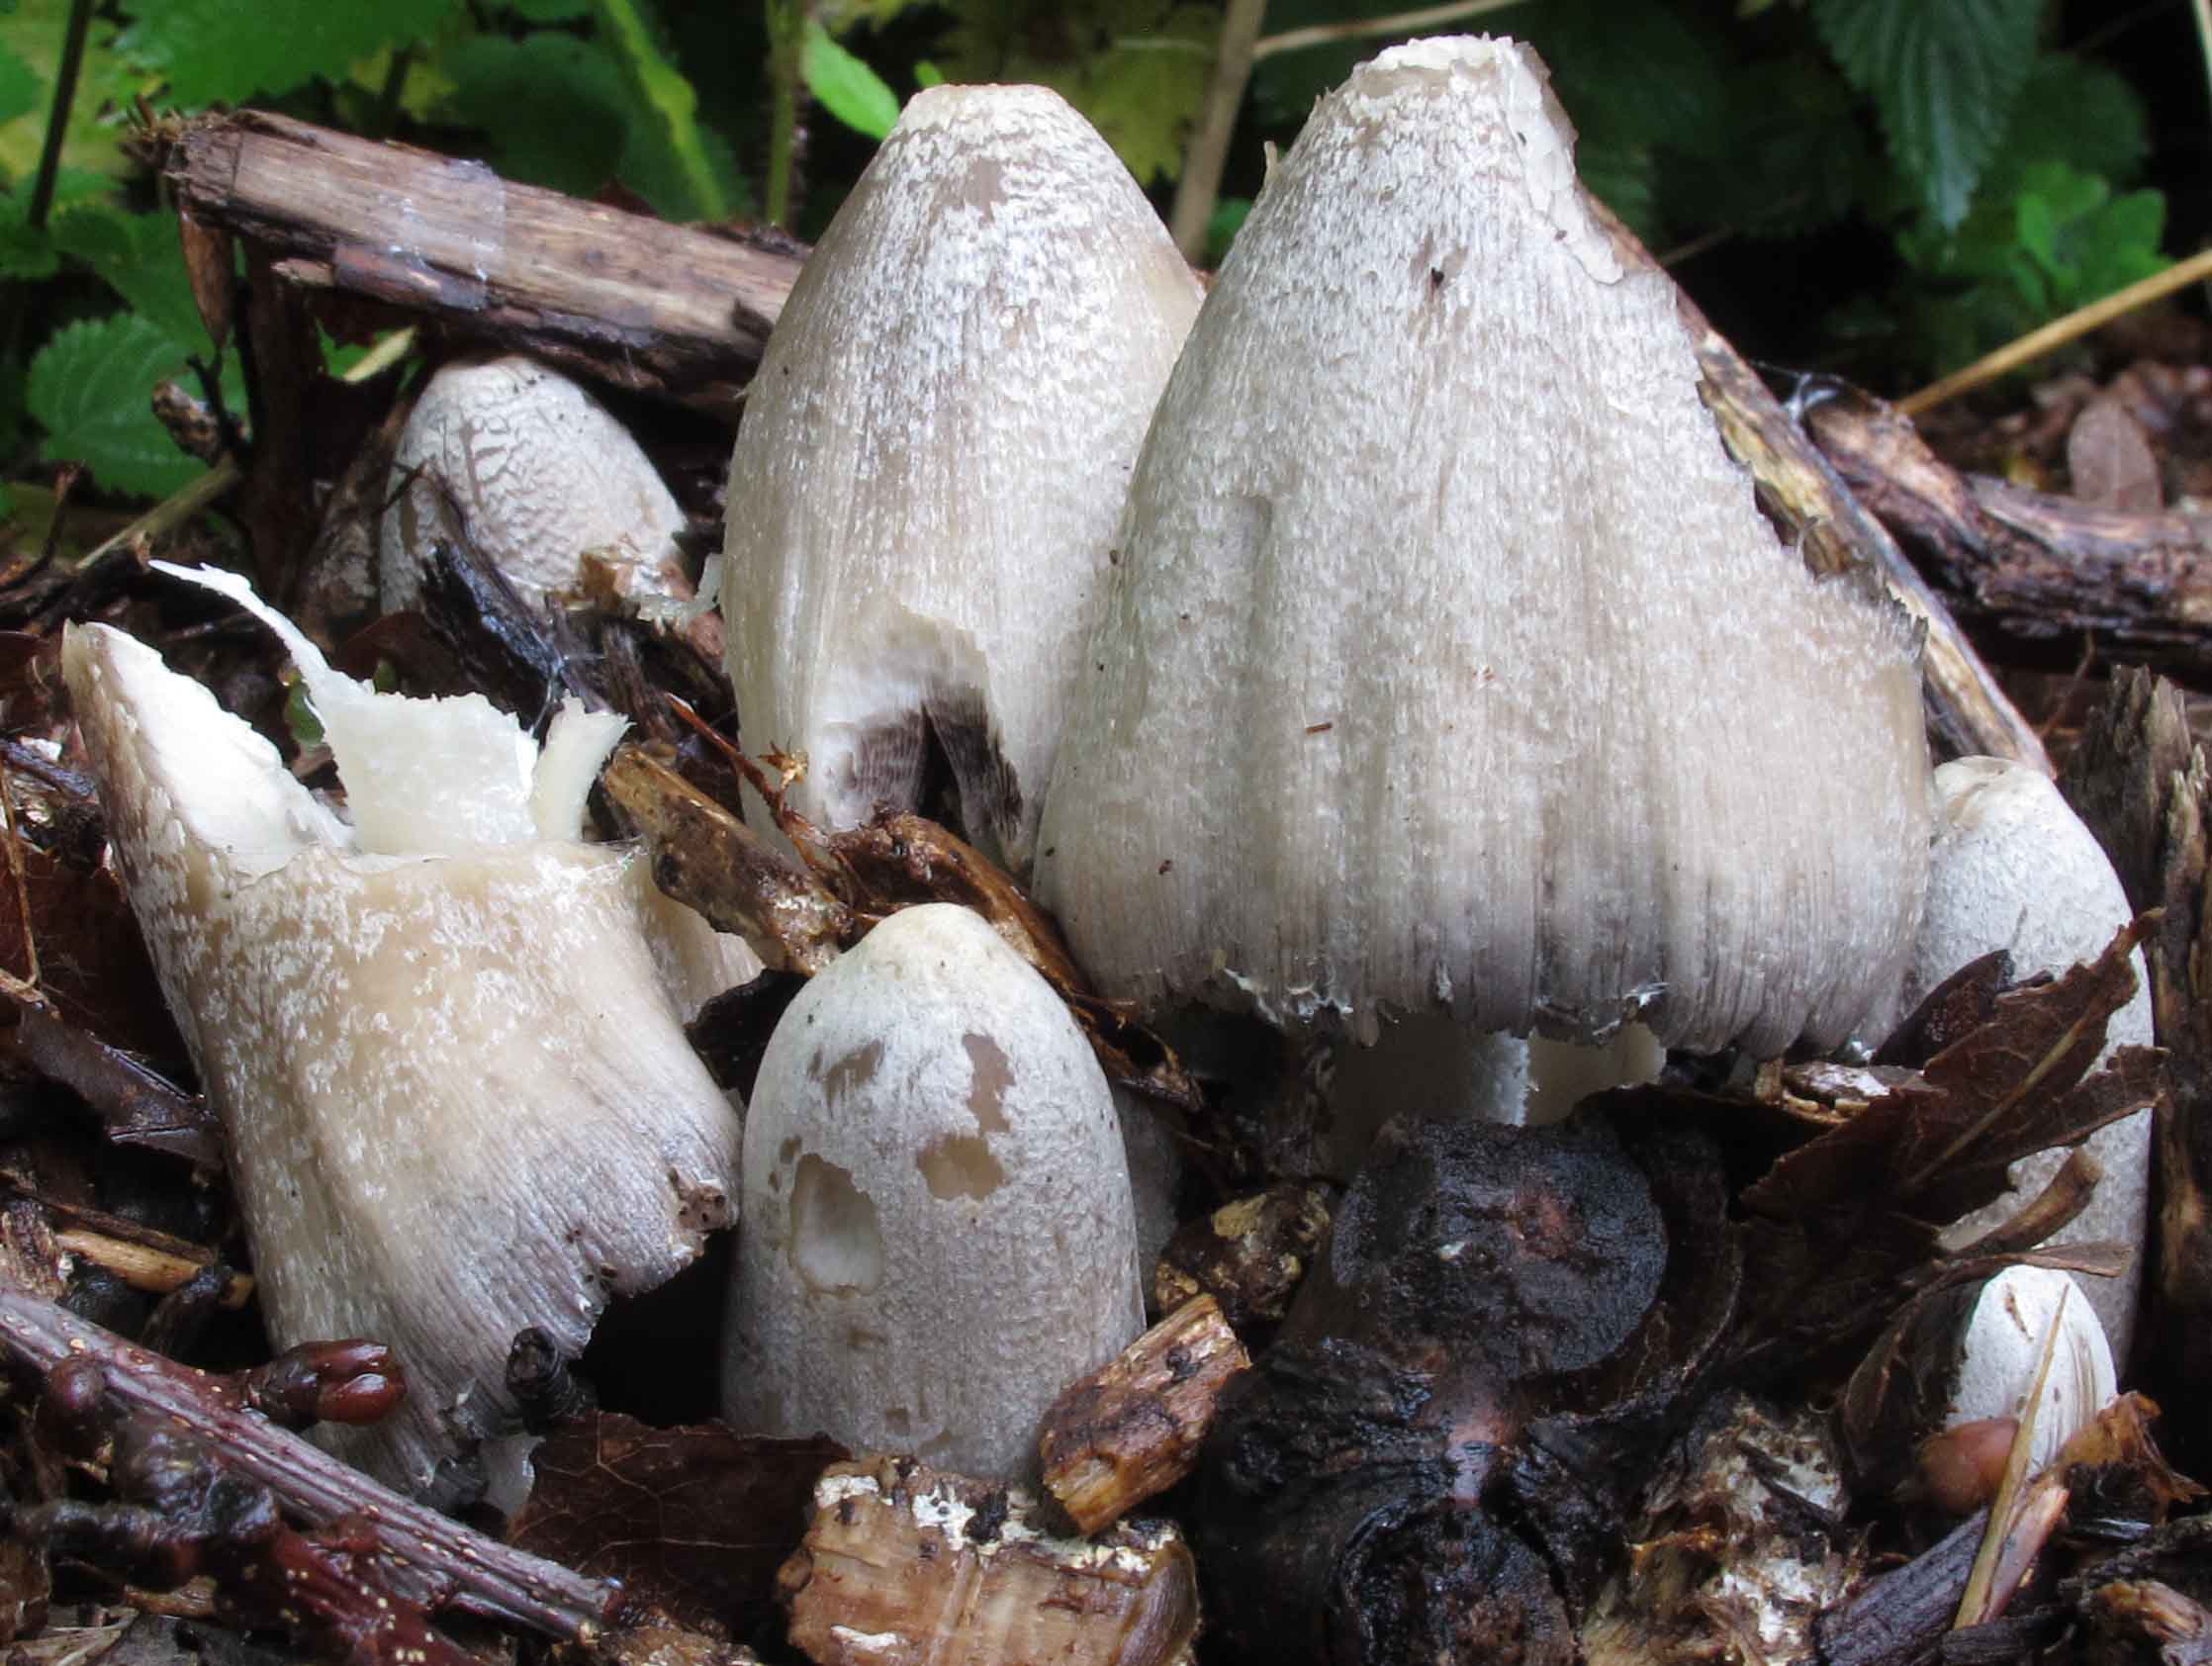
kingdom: Fungi
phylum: Basidiomycota
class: Agaricomycetes
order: Agaricales
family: Psathyrellaceae
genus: Coprinopsis
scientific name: Coprinopsis strossmayeri
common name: hyfestrengs-blækhat
